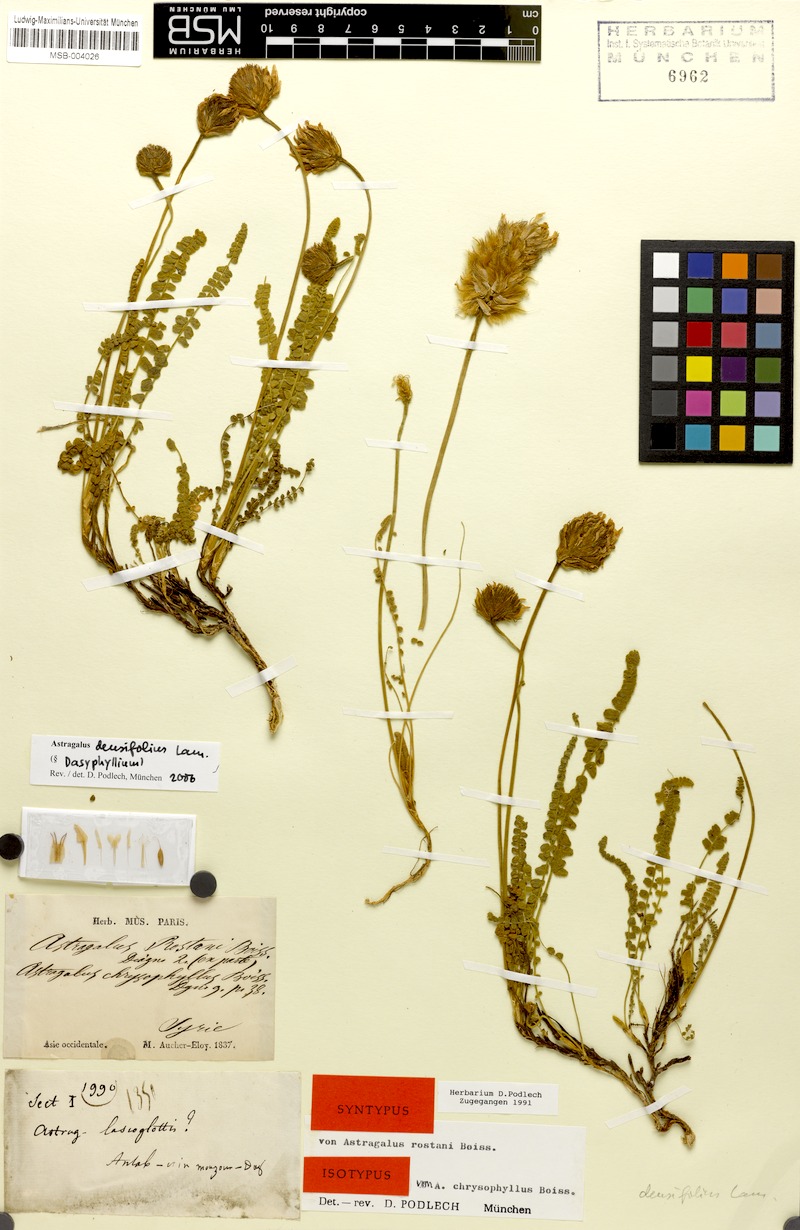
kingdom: Plantae
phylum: Tracheophyta
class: Magnoliopsida
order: Fabales
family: Fabaceae
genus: Astragalus
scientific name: Astragalus densifolius
